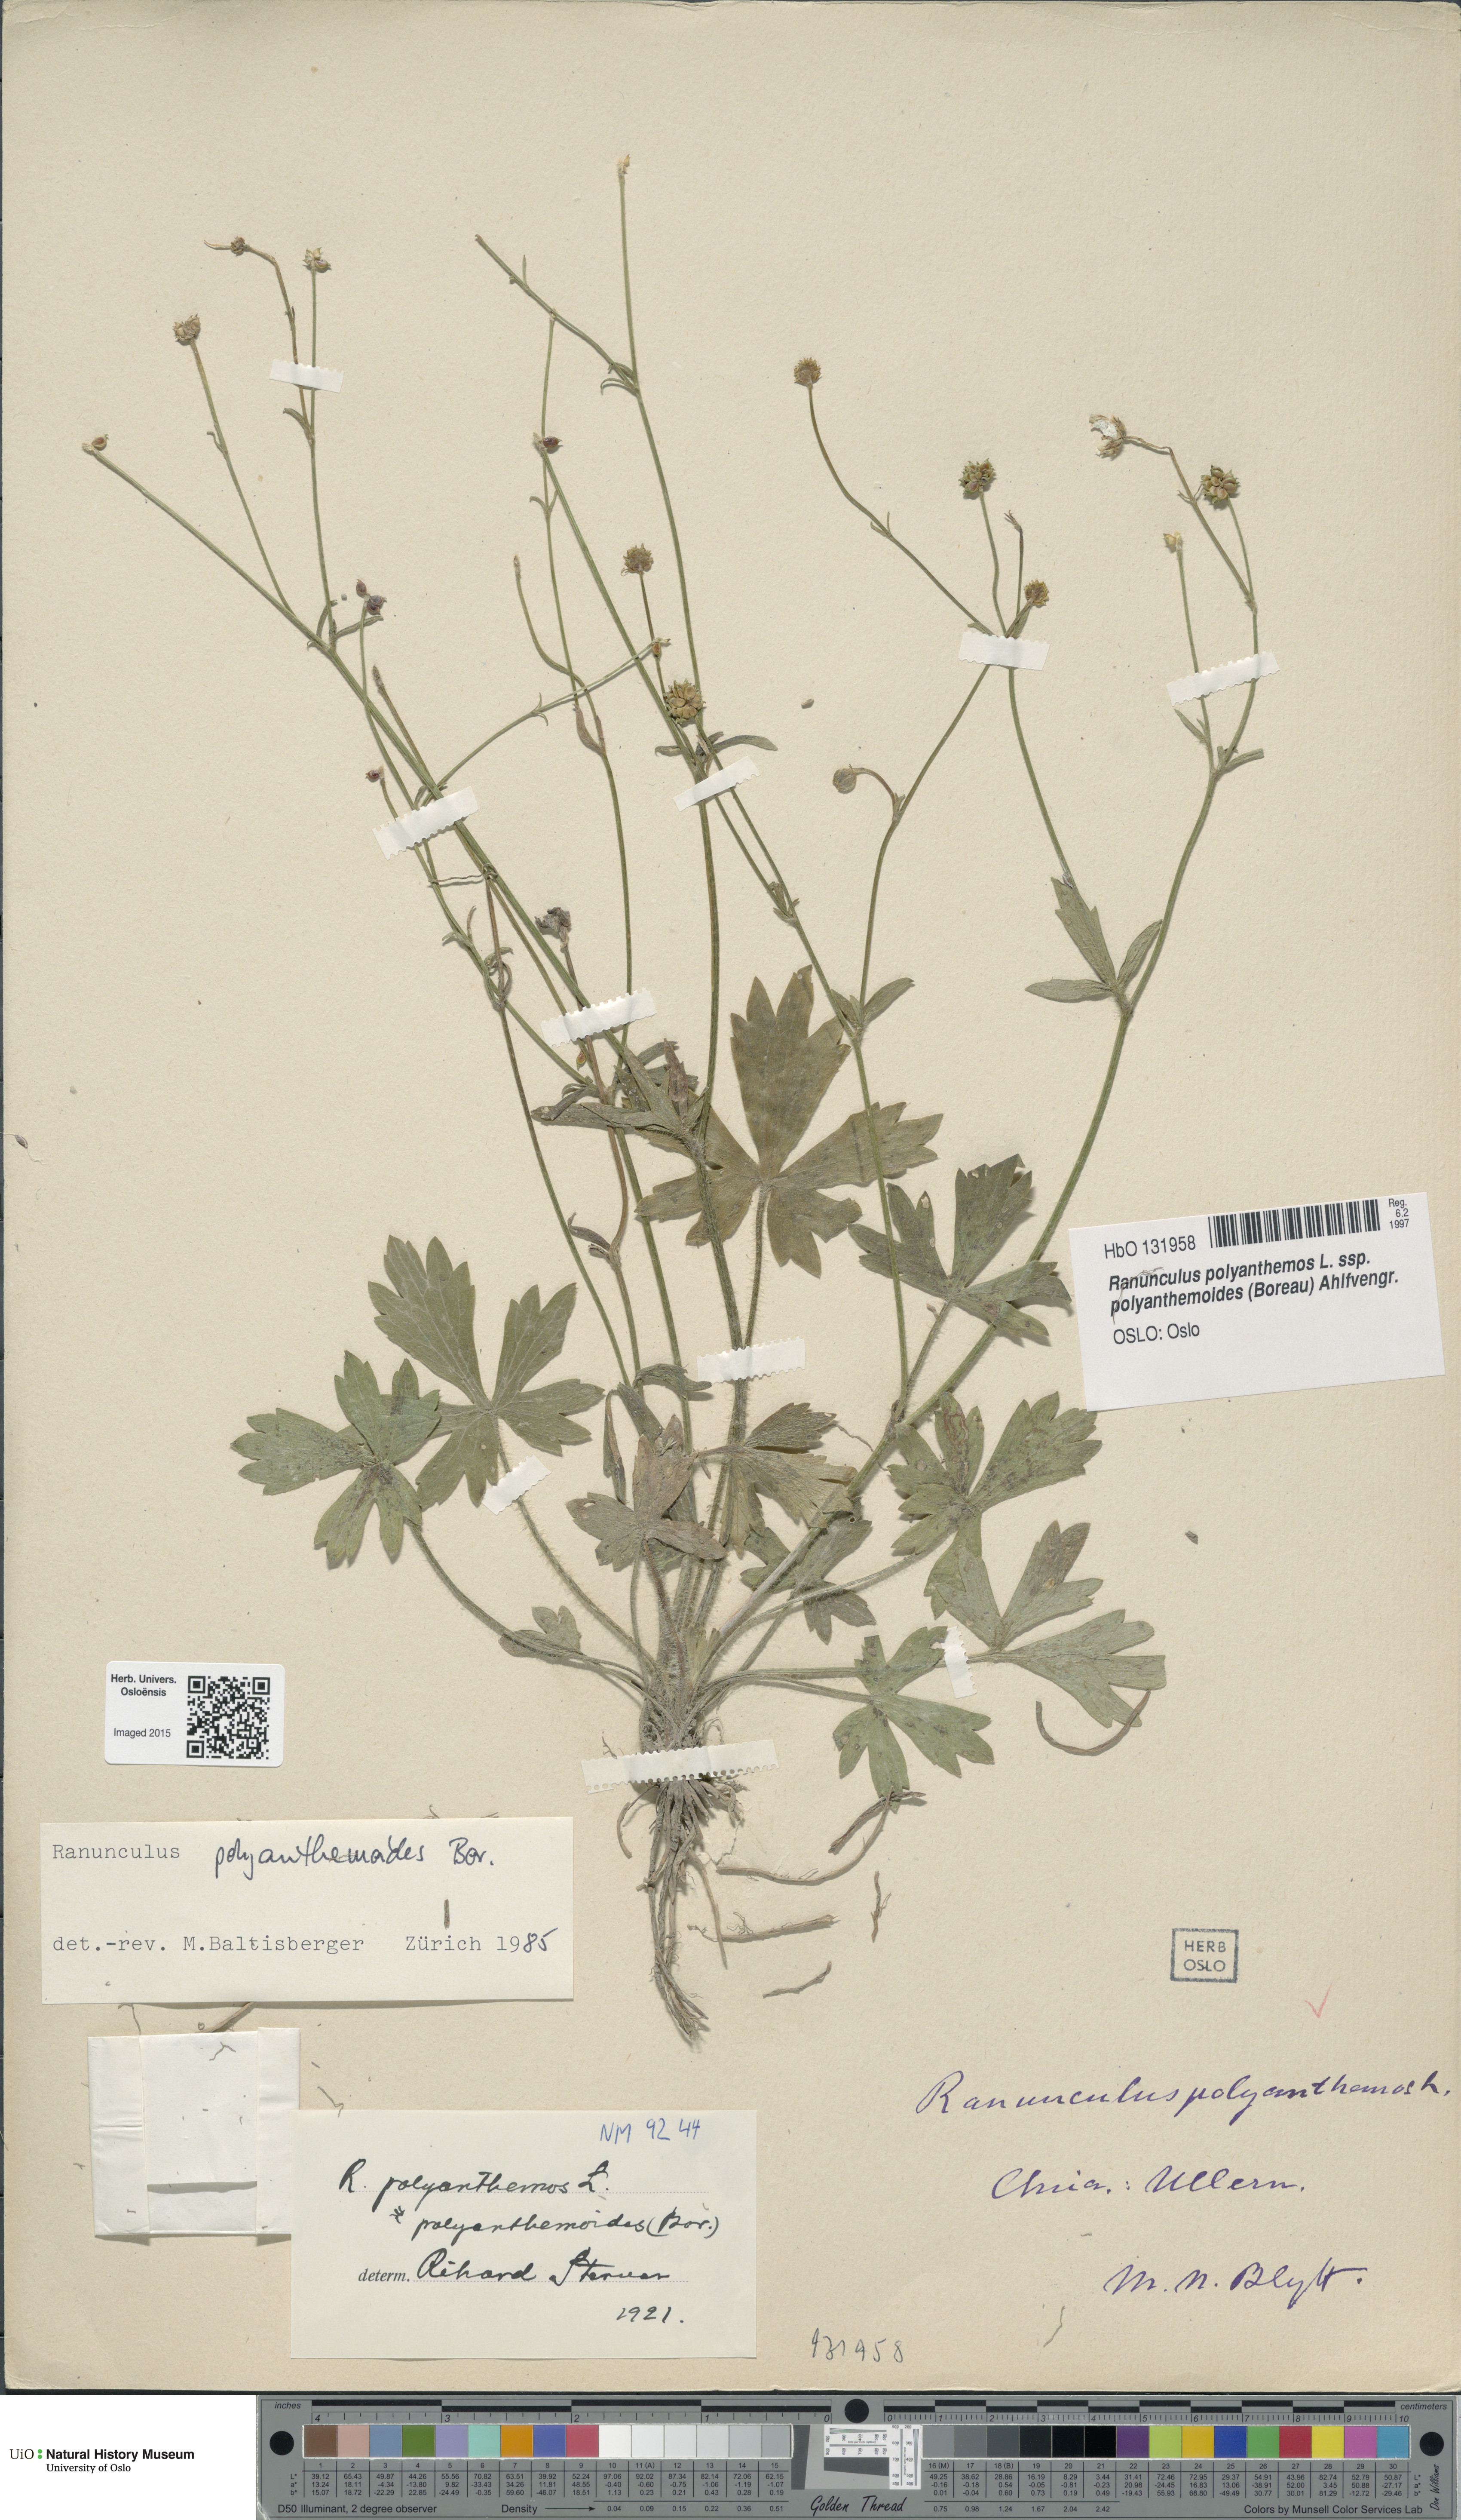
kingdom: Plantae
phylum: Tracheophyta
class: Magnoliopsida
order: Ranunculales
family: Ranunculaceae
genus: Ranunculus
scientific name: Ranunculus polyanthemos
